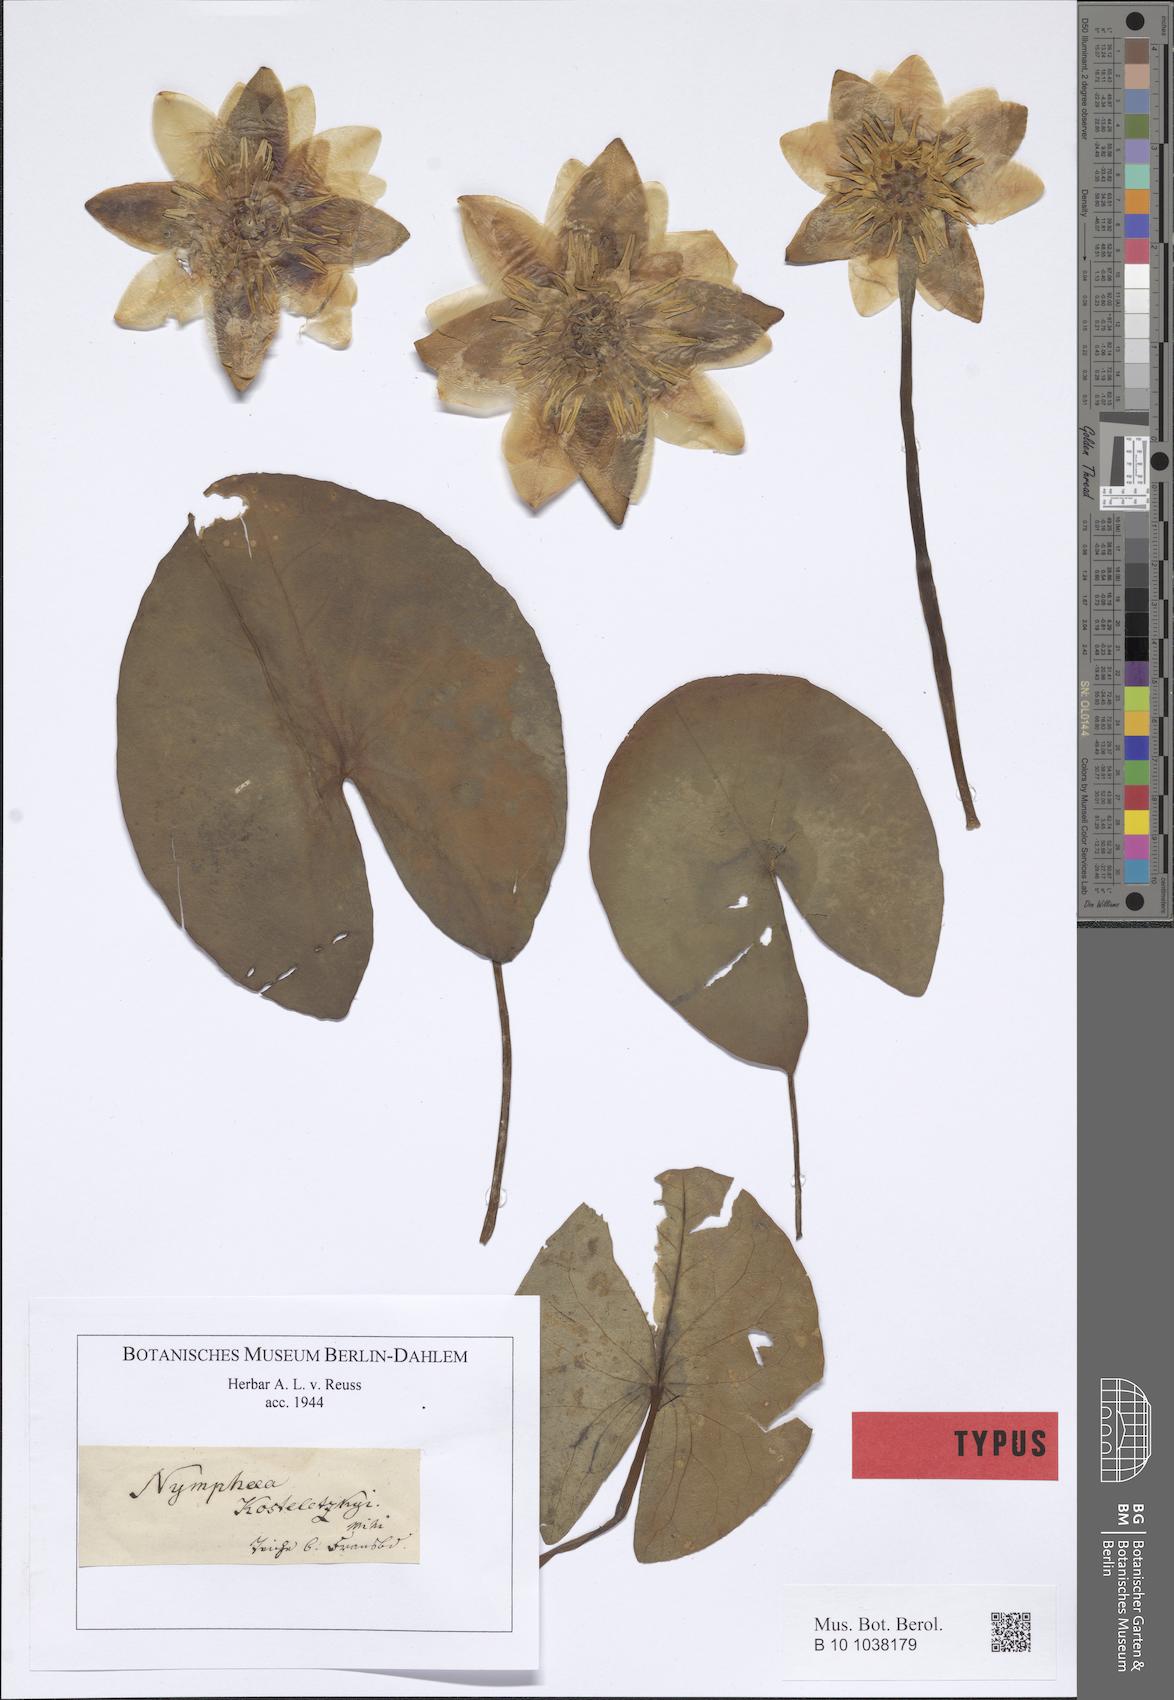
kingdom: Plantae
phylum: Tracheophyta
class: Magnoliopsida
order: Nymphaeales
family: Nymphaeaceae
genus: Nymphaea
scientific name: Nymphaea candida
